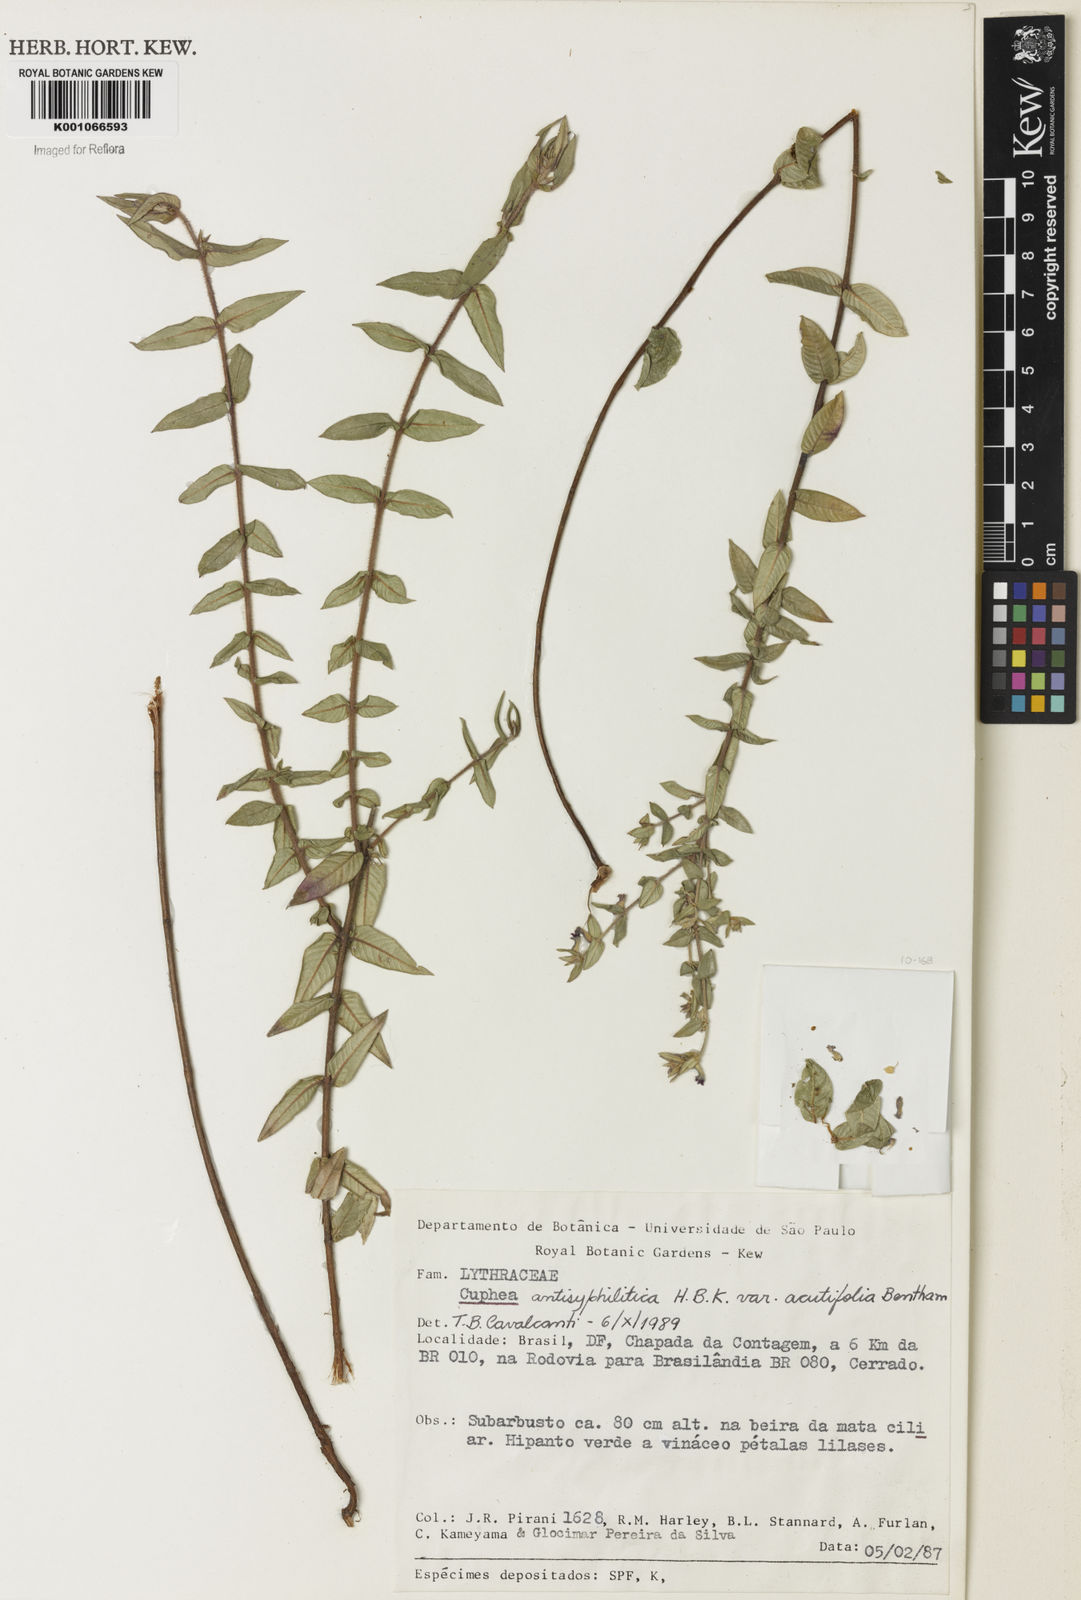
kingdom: Plantae
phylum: Tracheophyta
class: Magnoliopsida
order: Myrtales
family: Lythraceae
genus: Cuphea
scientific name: Cuphea antisyphilitica
